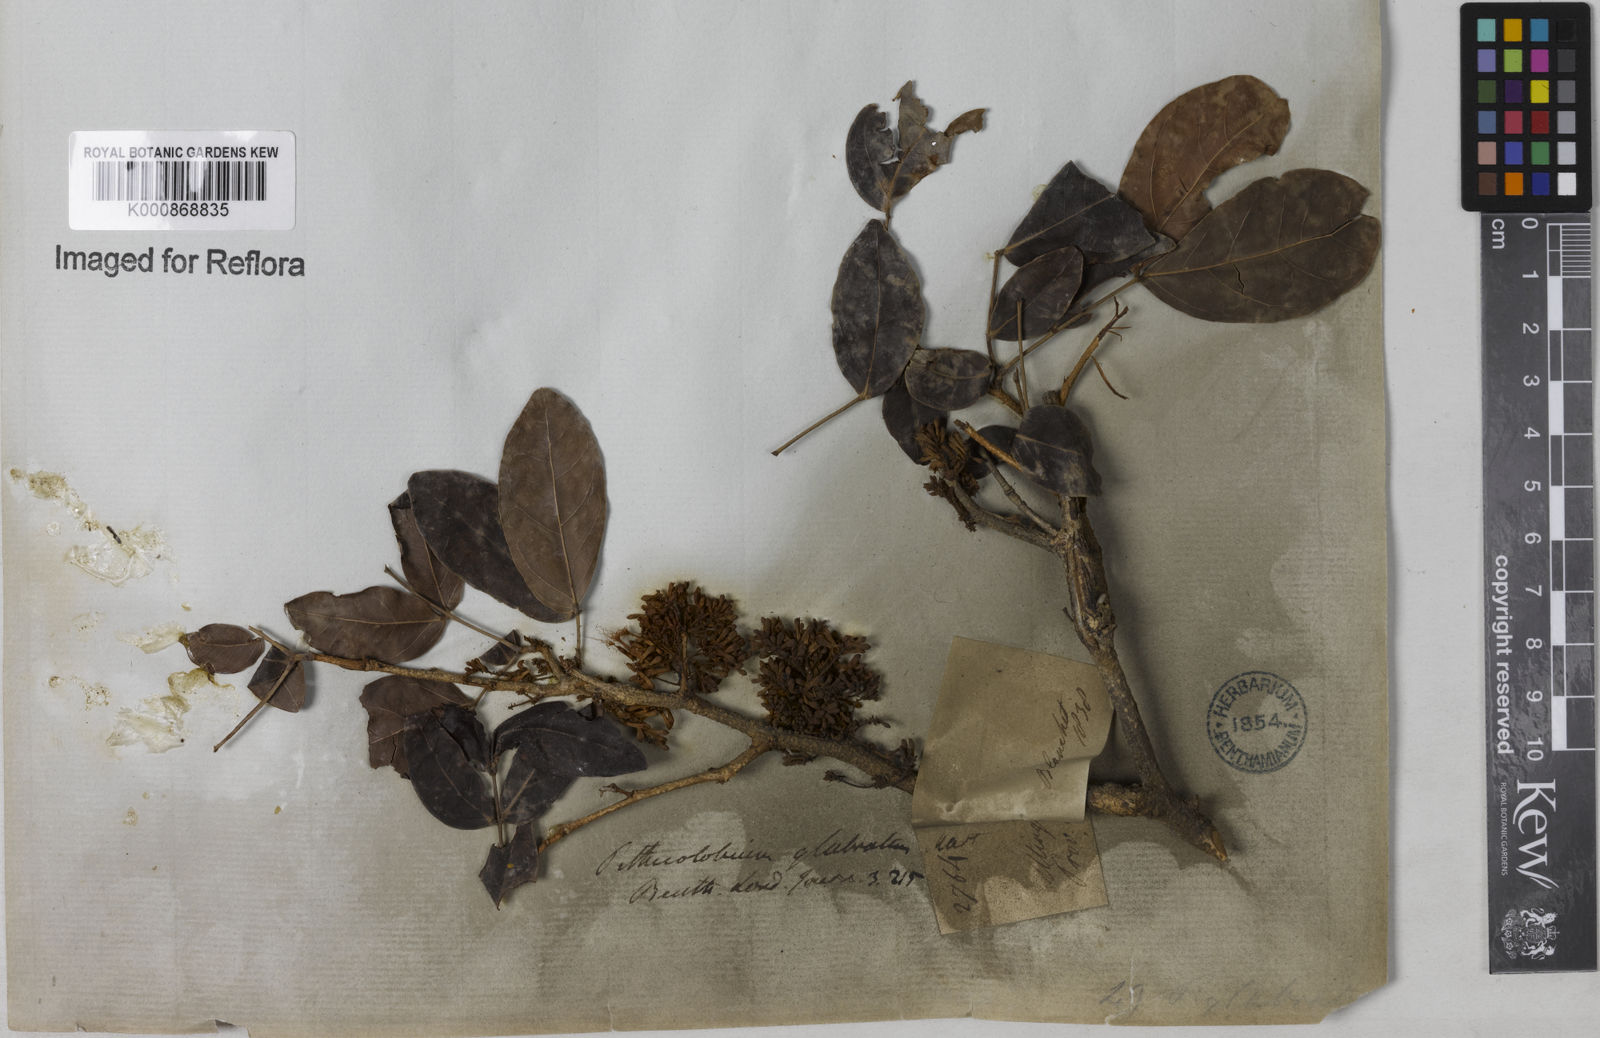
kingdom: Plantae
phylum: Tracheophyta
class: Magnoliopsida
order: Fabales
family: Fabaceae
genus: Zygia
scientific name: Zygia
